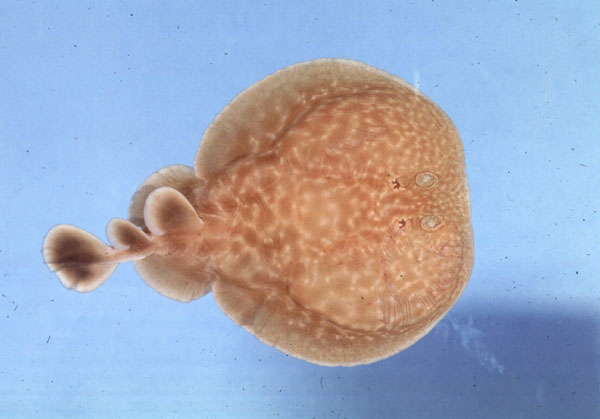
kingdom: Animalia
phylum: Chordata
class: Elasmobranchii
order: Torpediniformes
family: Torpedinidae
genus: Torpedo
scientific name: Torpedo sinuspersici
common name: Marbled electric ray
